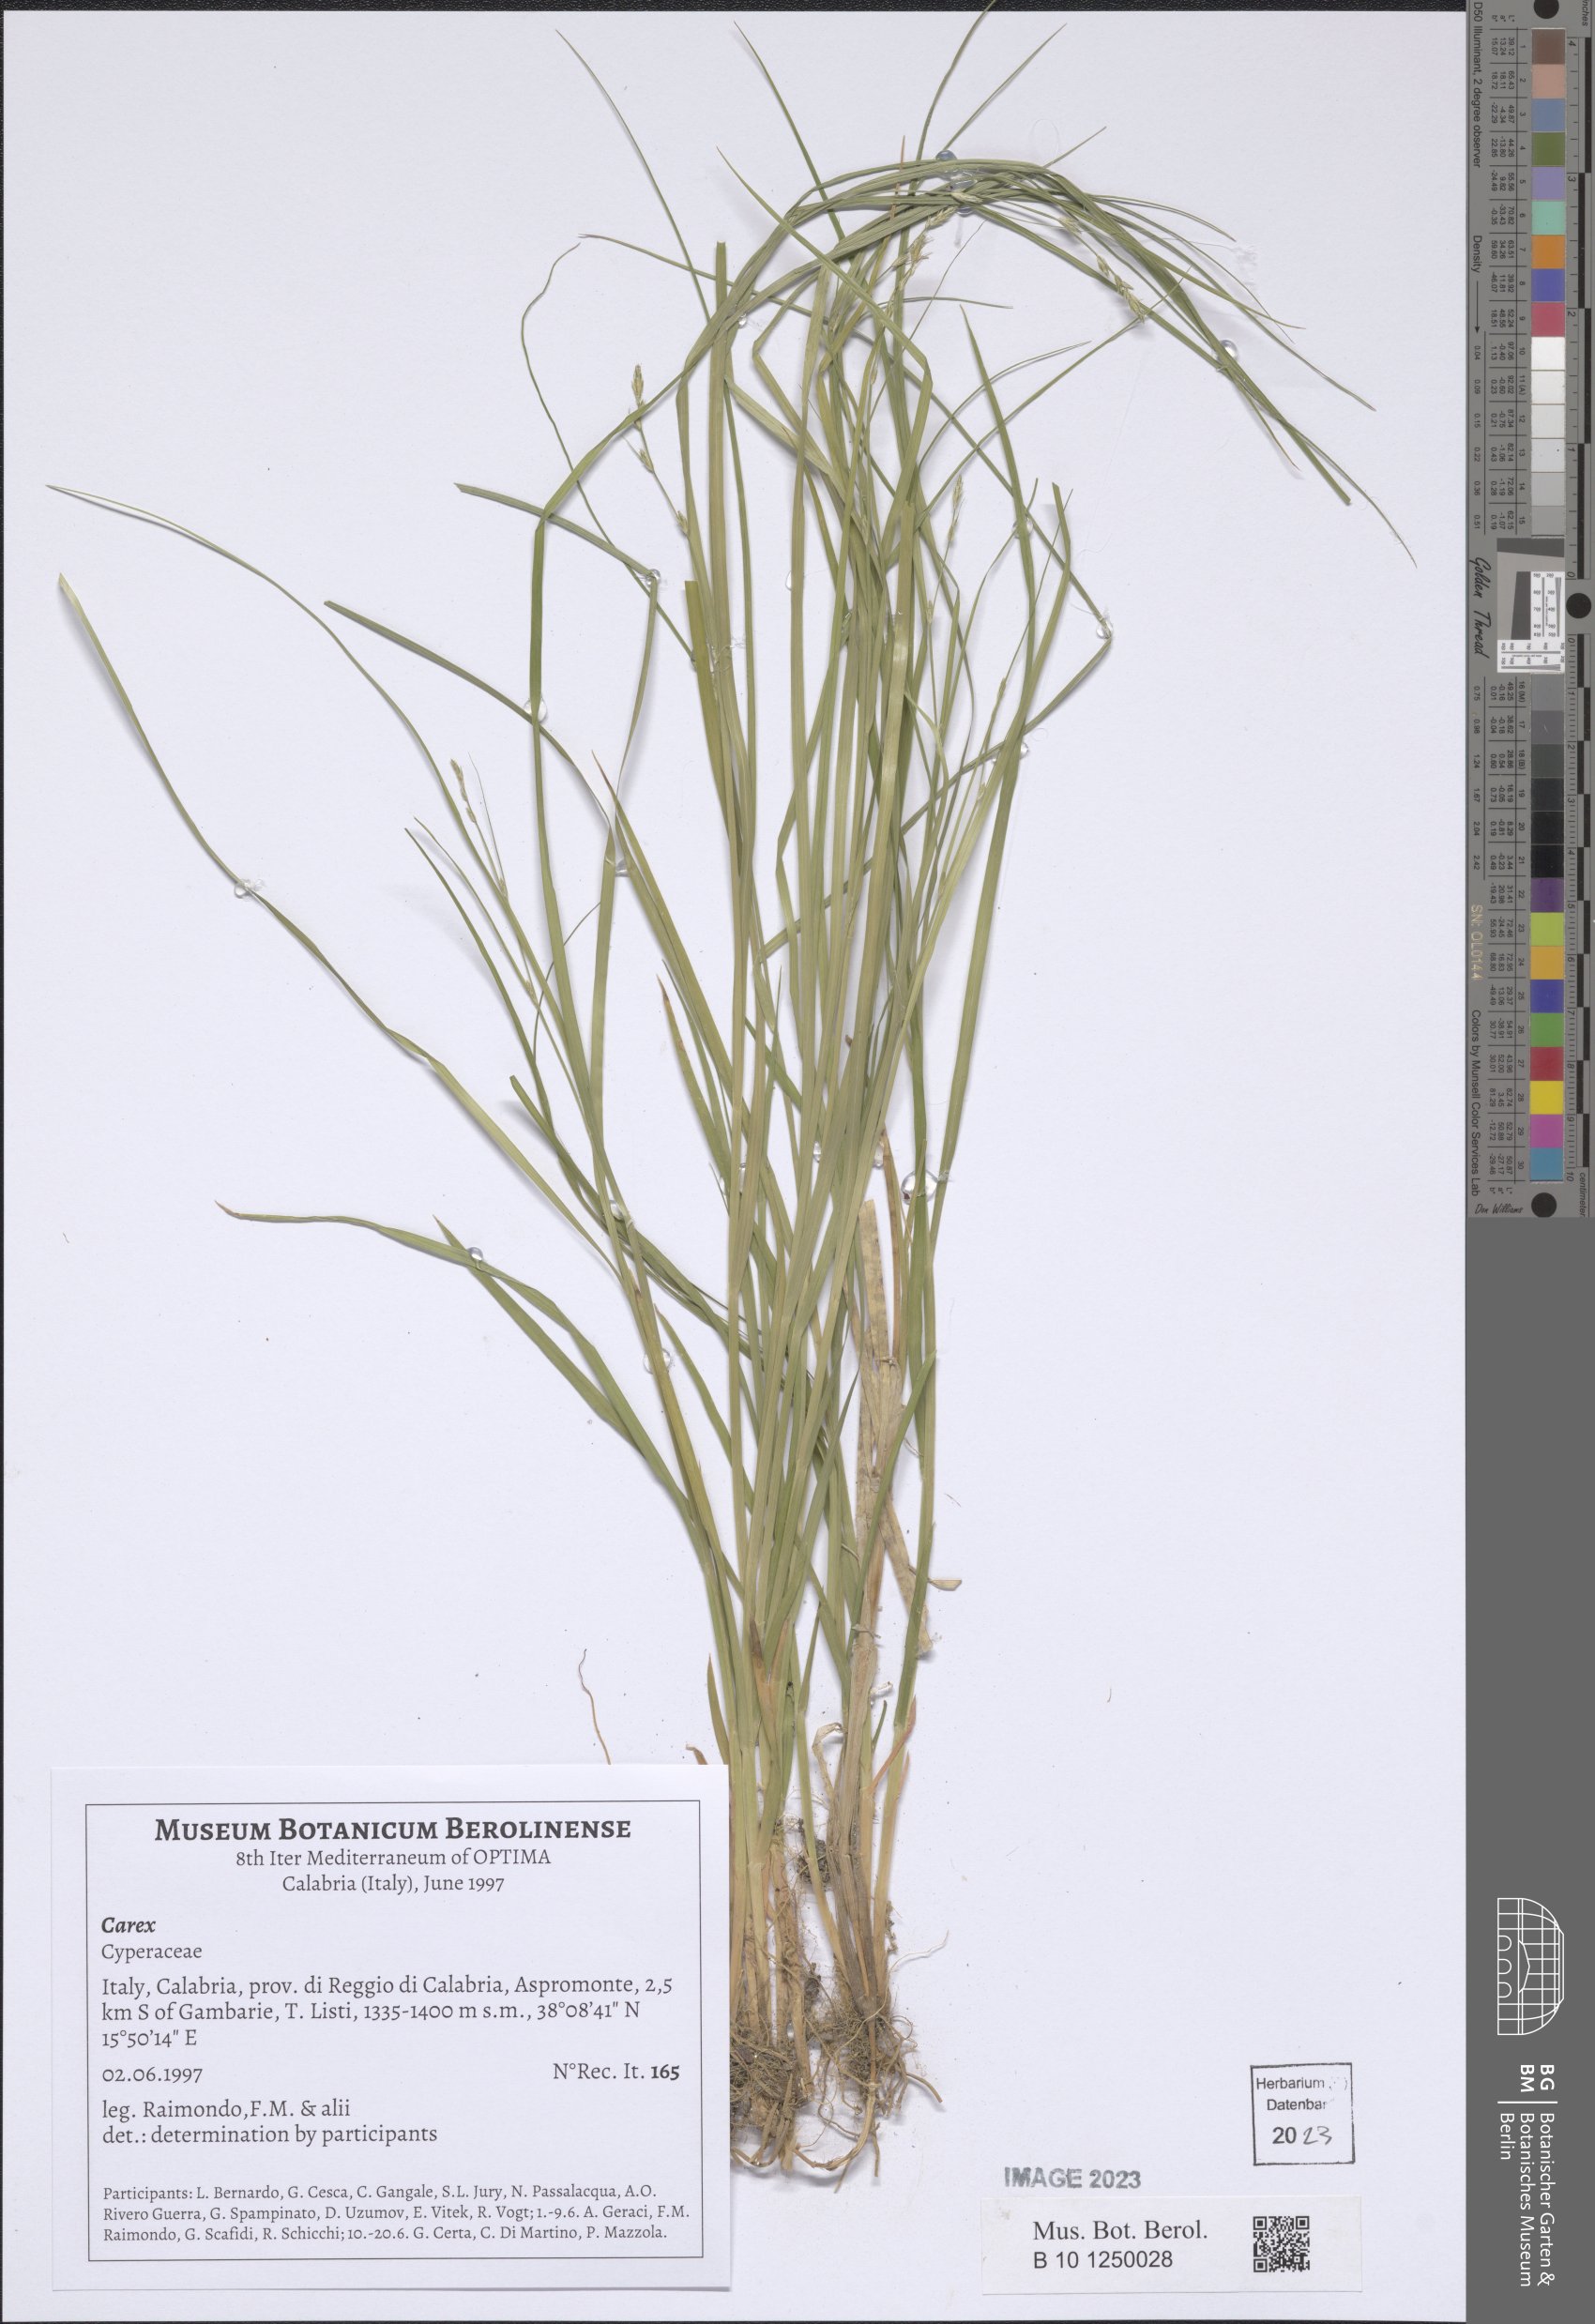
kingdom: Plantae
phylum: Tracheophyta
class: Liliopsida
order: Poales
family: Cyperaceae
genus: Carex
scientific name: Carex
